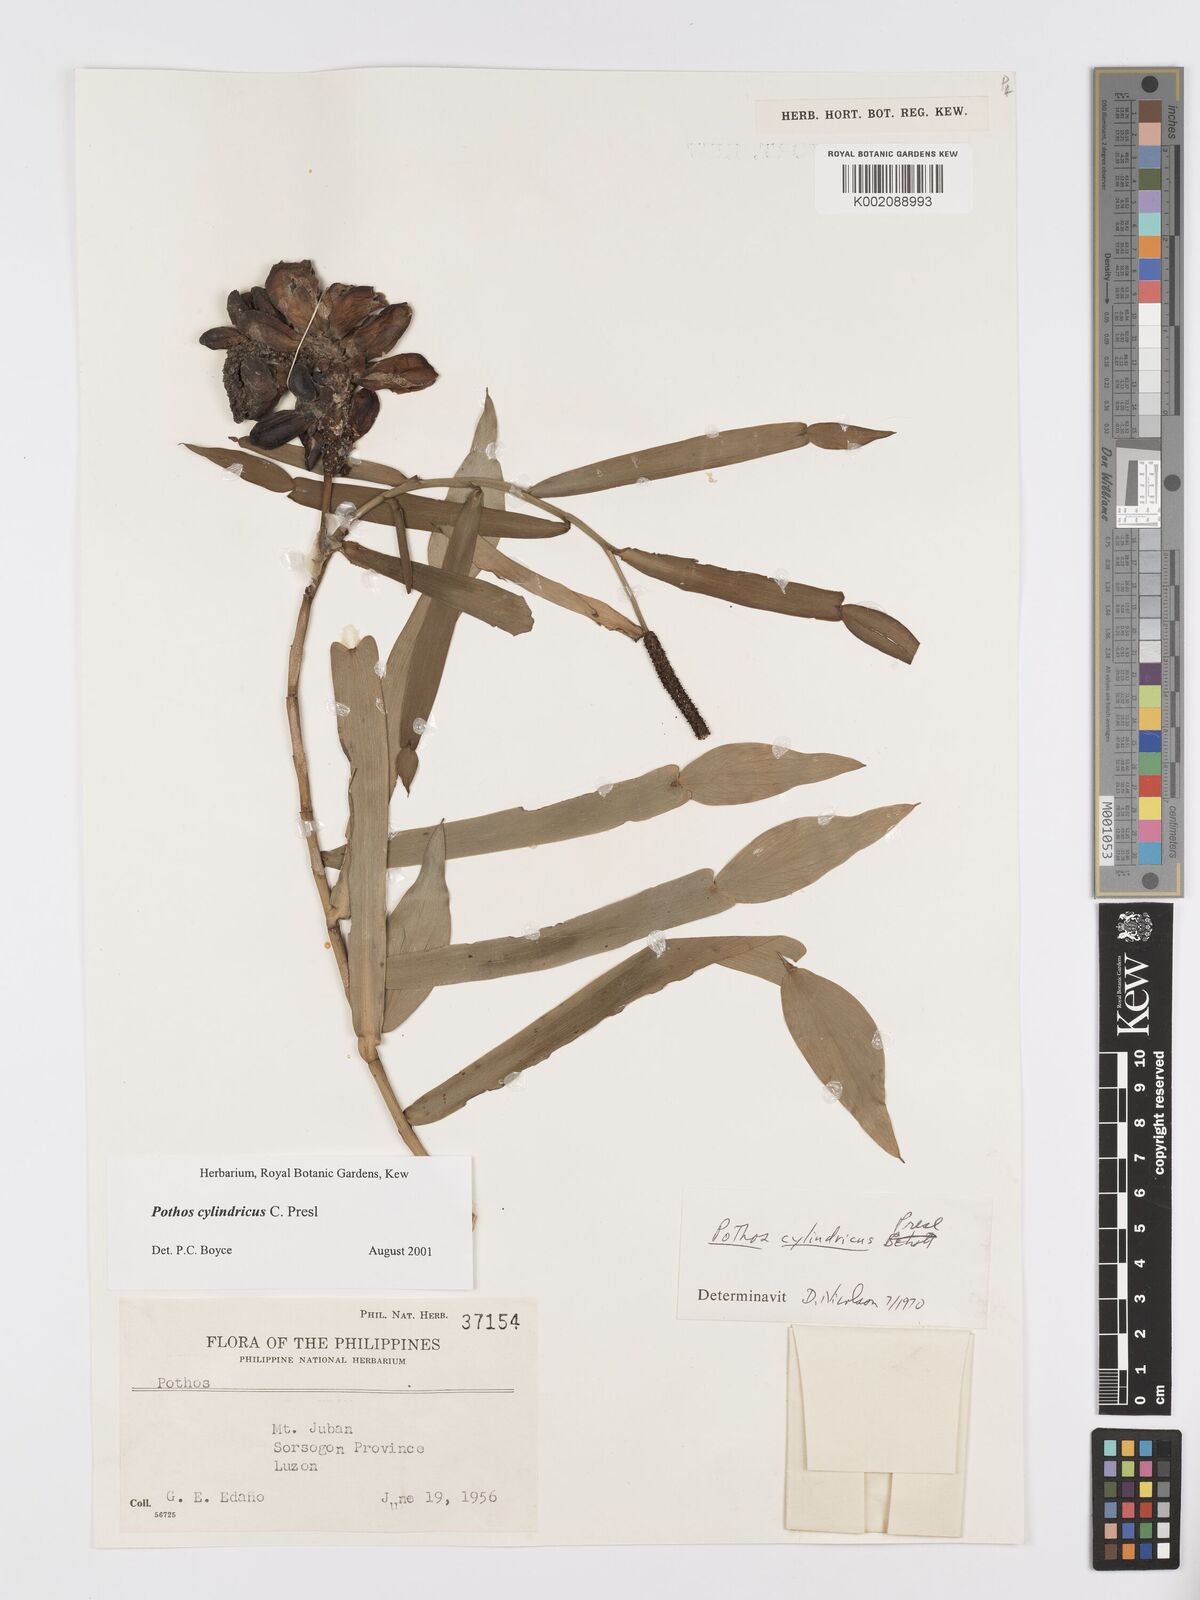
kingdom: Plantae
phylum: Tracheophyta
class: Liliopsida
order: Alismatales
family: Araceae
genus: Pothos
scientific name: Pothos cylindricus
